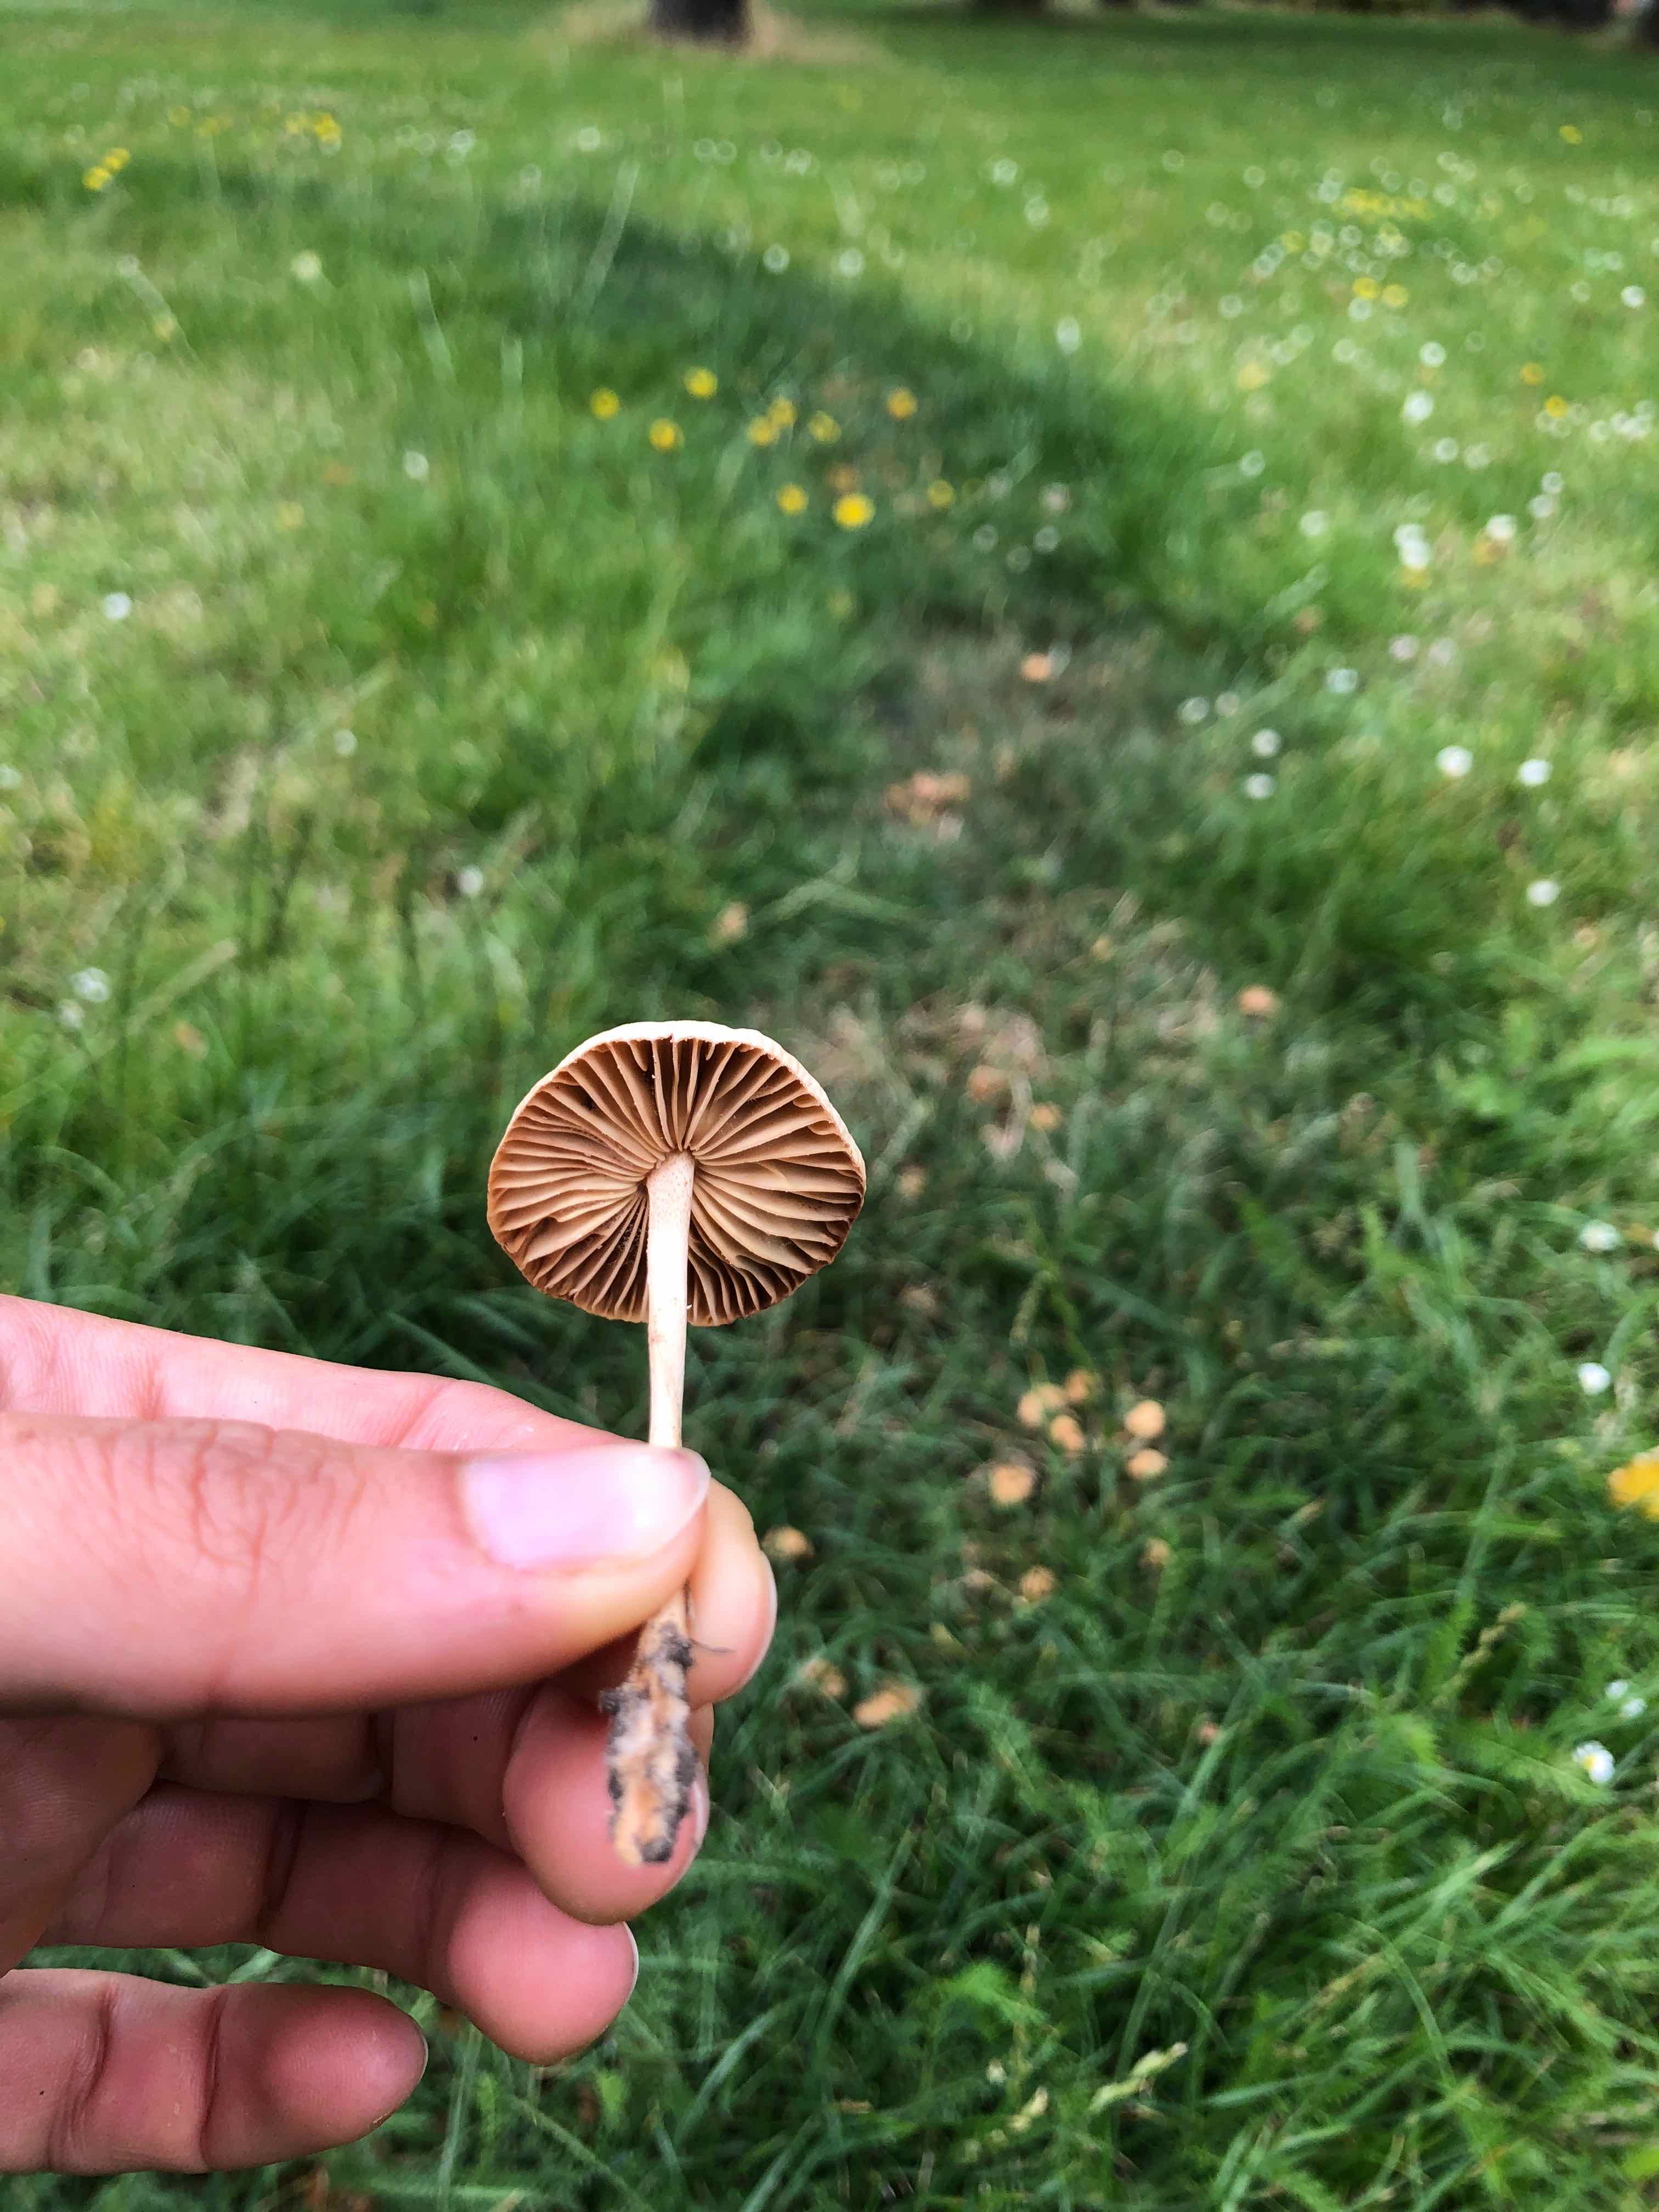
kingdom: Fungi
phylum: Basidiomycota
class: Agaricomycetes
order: Agaricales
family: Marasmiaceae
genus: Marasmius
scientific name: Marasmius oreades
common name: elledans-bruskhat
